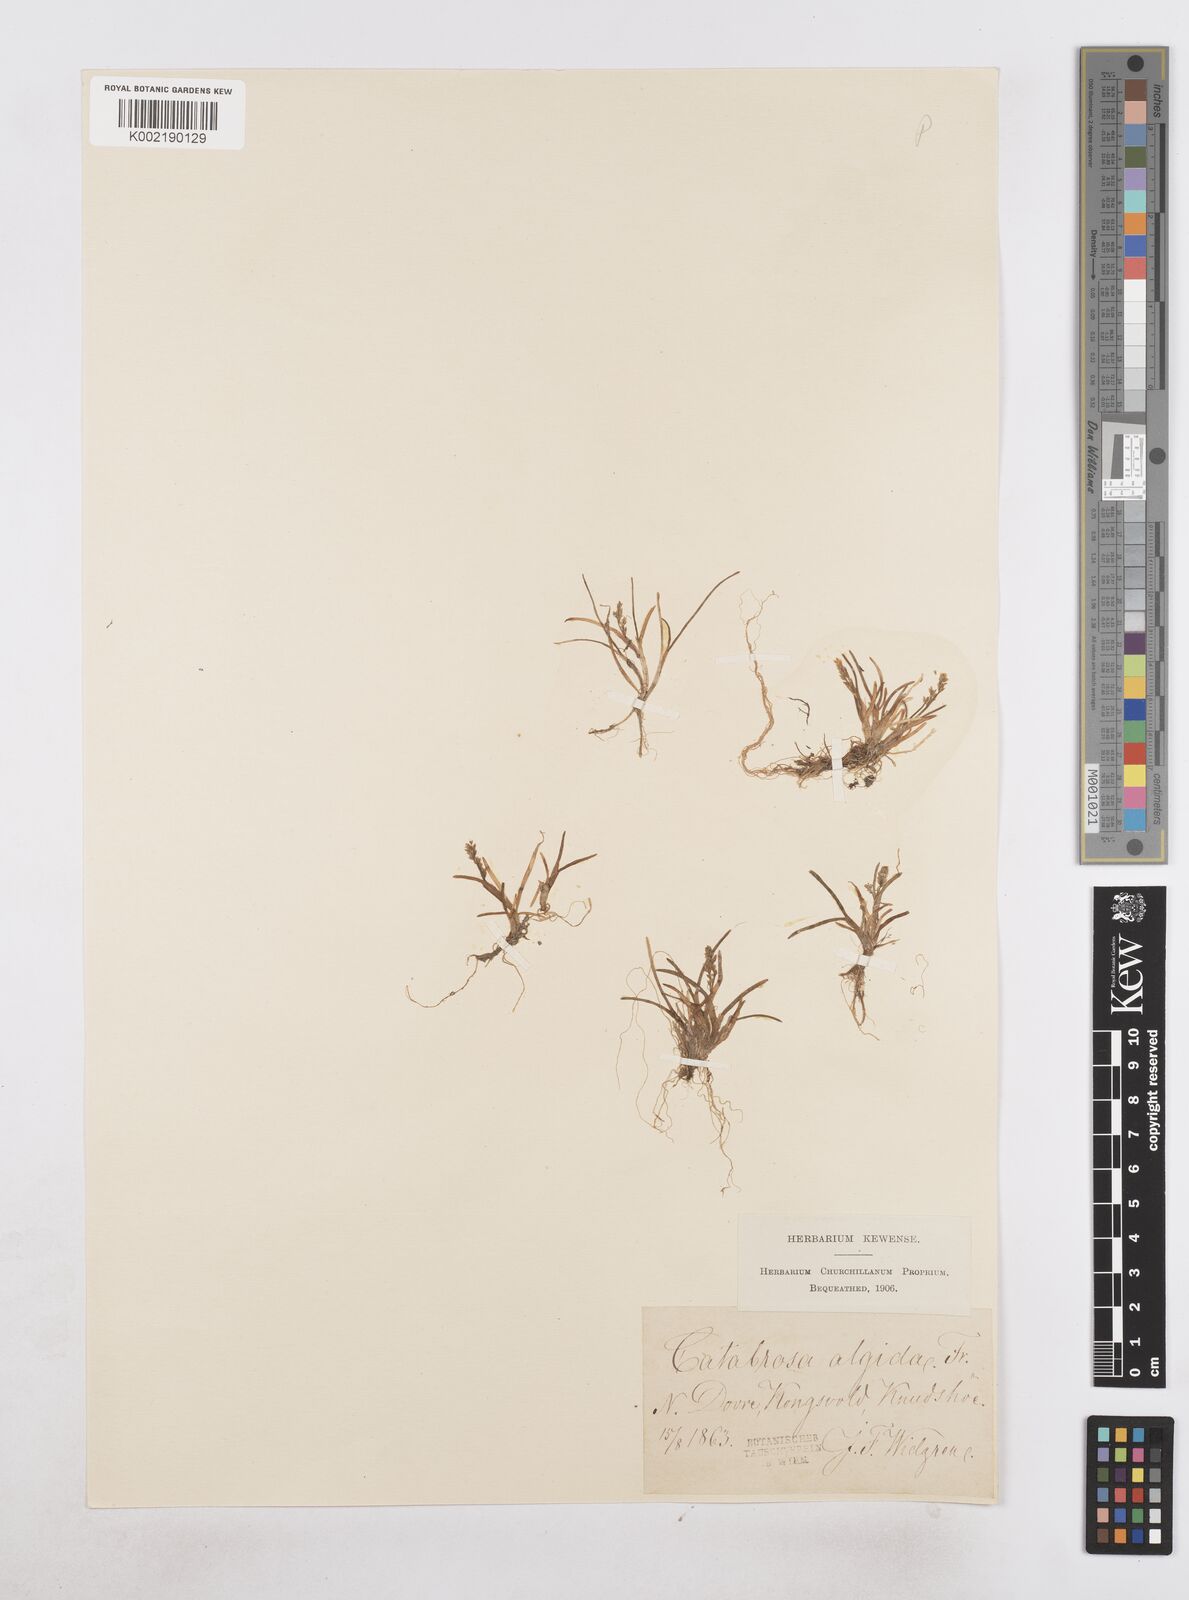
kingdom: Plantae
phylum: Tracheophyta
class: Liliopsida
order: Poales
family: Poaceae
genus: Phippsia
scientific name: Phippsia algida
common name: Ice grass
